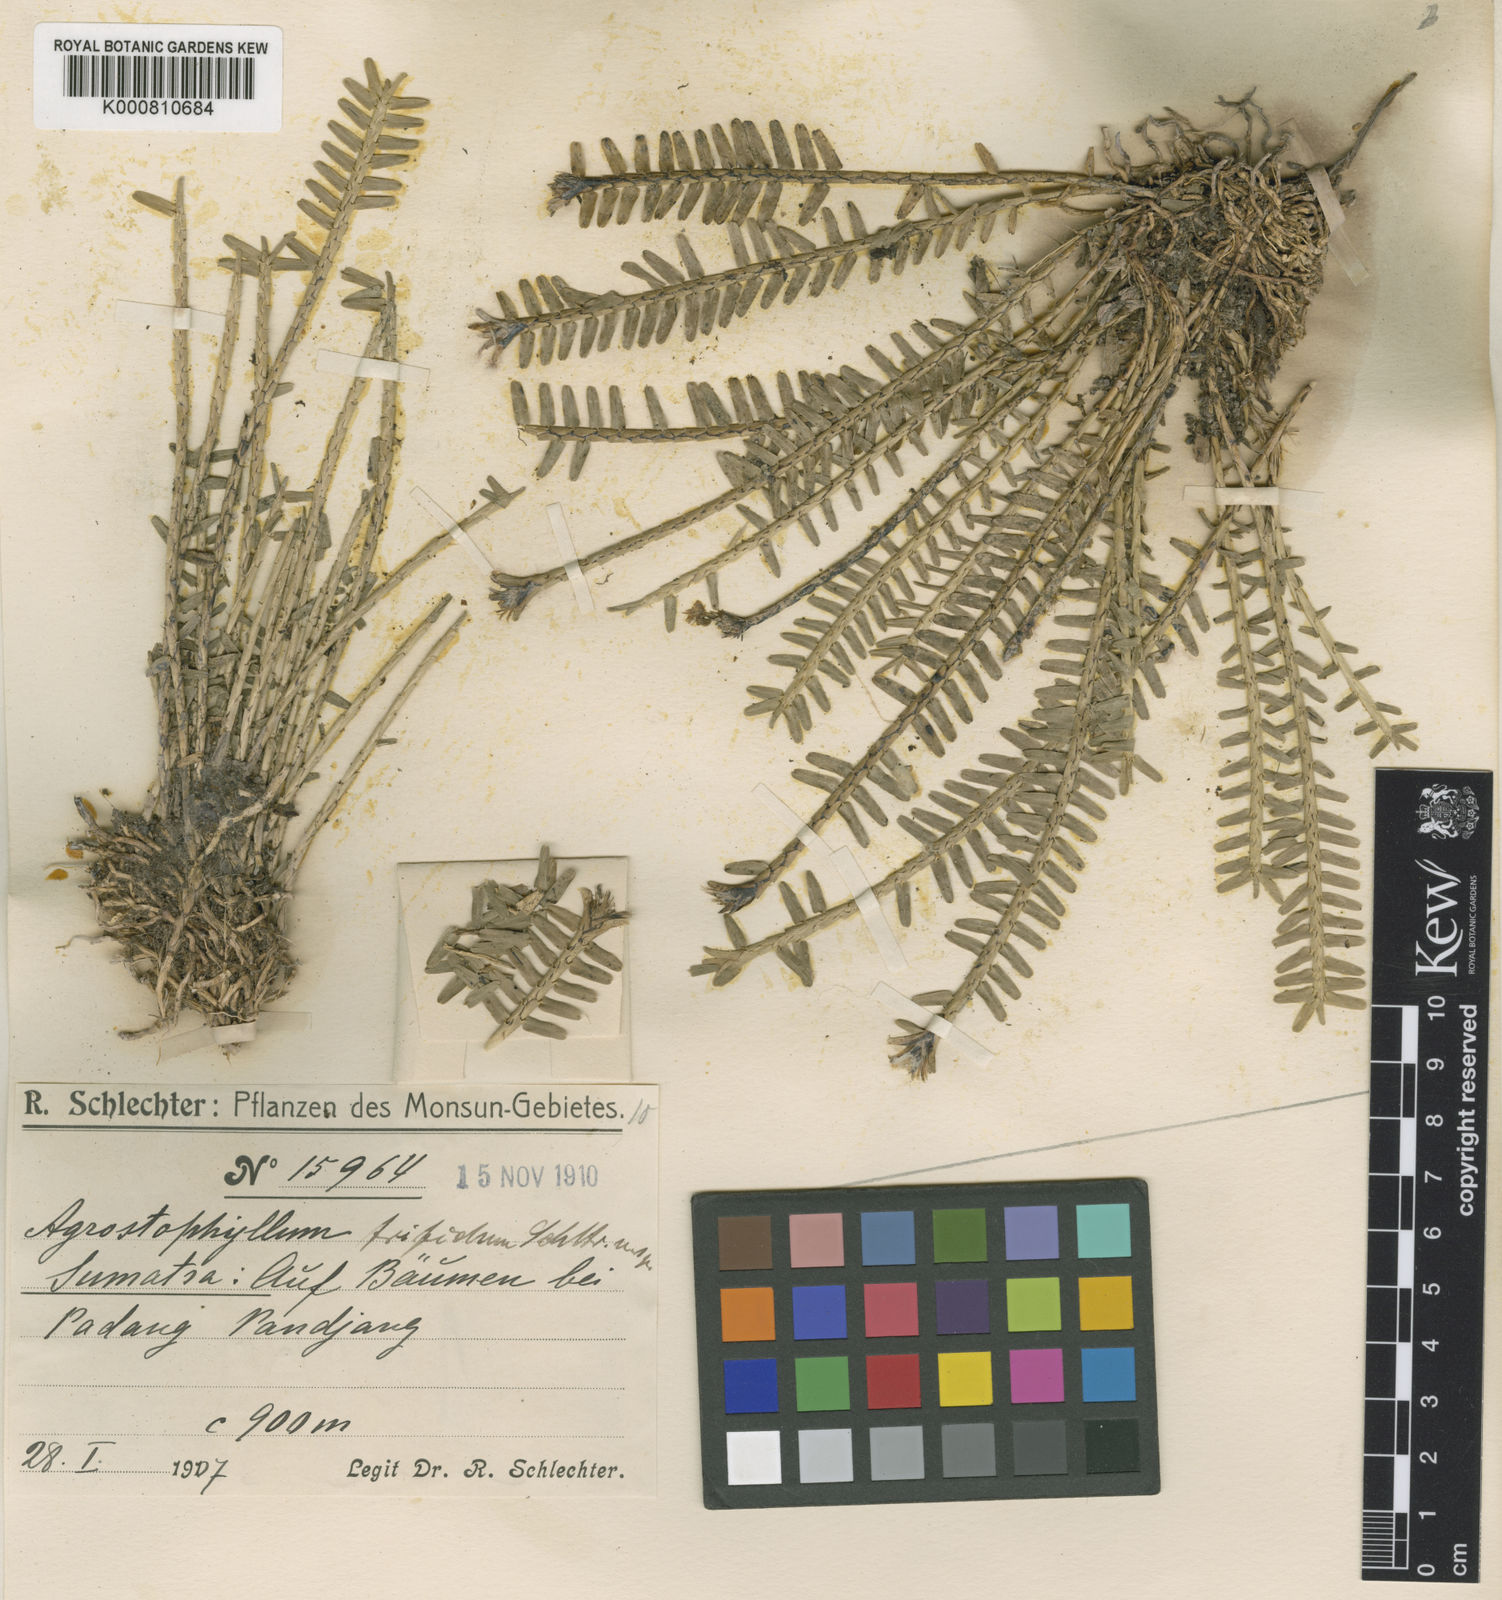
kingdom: Plantae
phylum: Tracheophyta
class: Liliopsida
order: Asparagales
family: Orchidaceae
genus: Agrostophyllum
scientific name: Agrostophyllum trifidum
